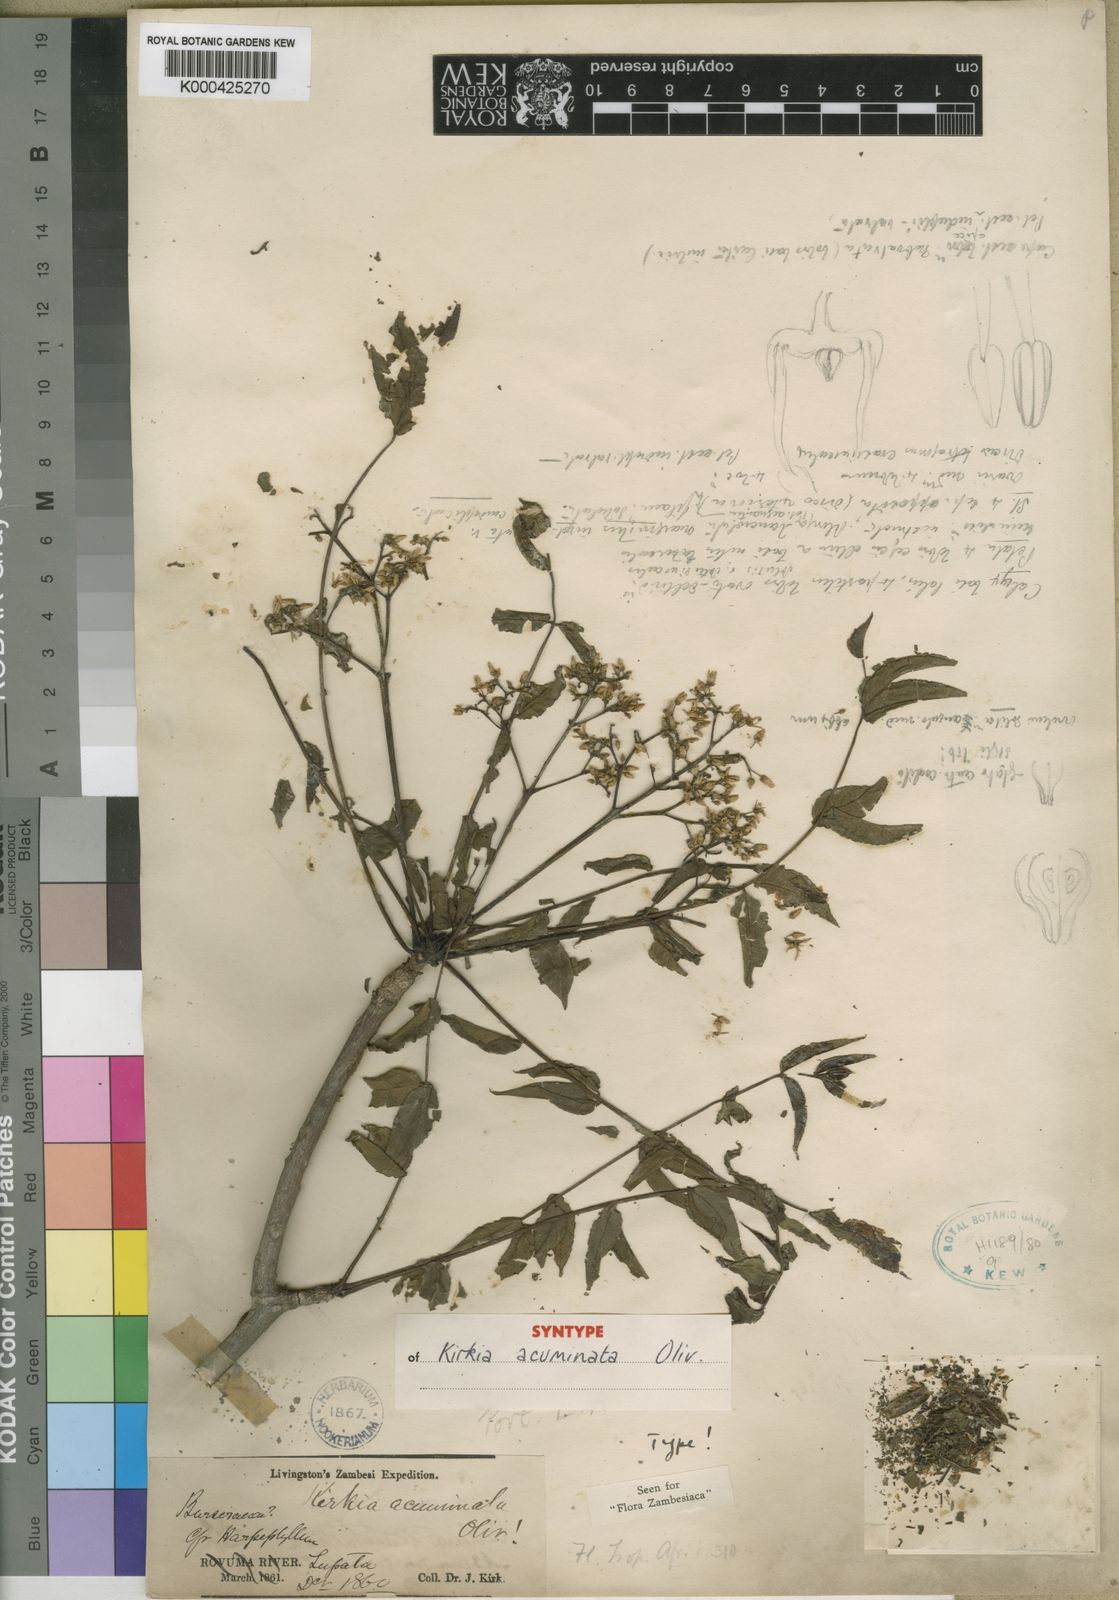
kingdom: Plantae
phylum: Tracheophyta
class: Magnoliopsida
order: Sapindales
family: Kirkiaceae
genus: Kirkia
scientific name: Kirkia acuminata
